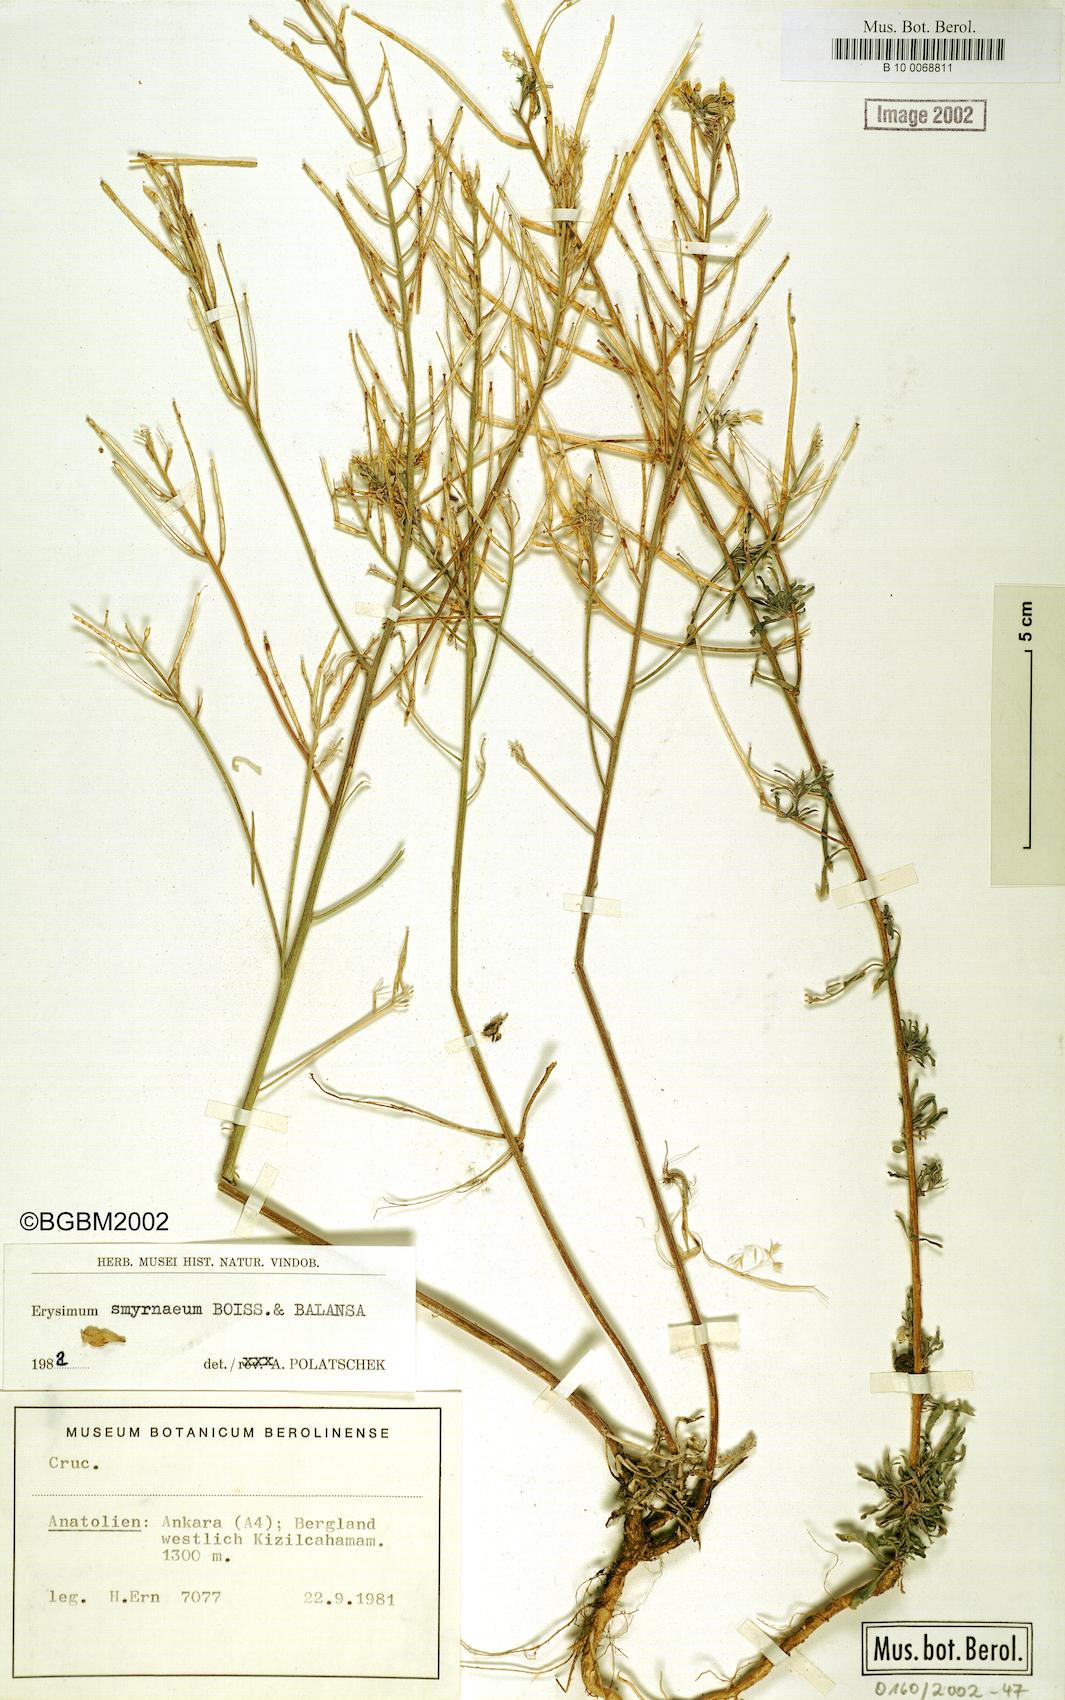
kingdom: Plantae
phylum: Tracheophyta
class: Magnoliopsida
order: Brassicales
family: Brassicaceae
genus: Erysimum
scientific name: Erysimum smyrnaeum
